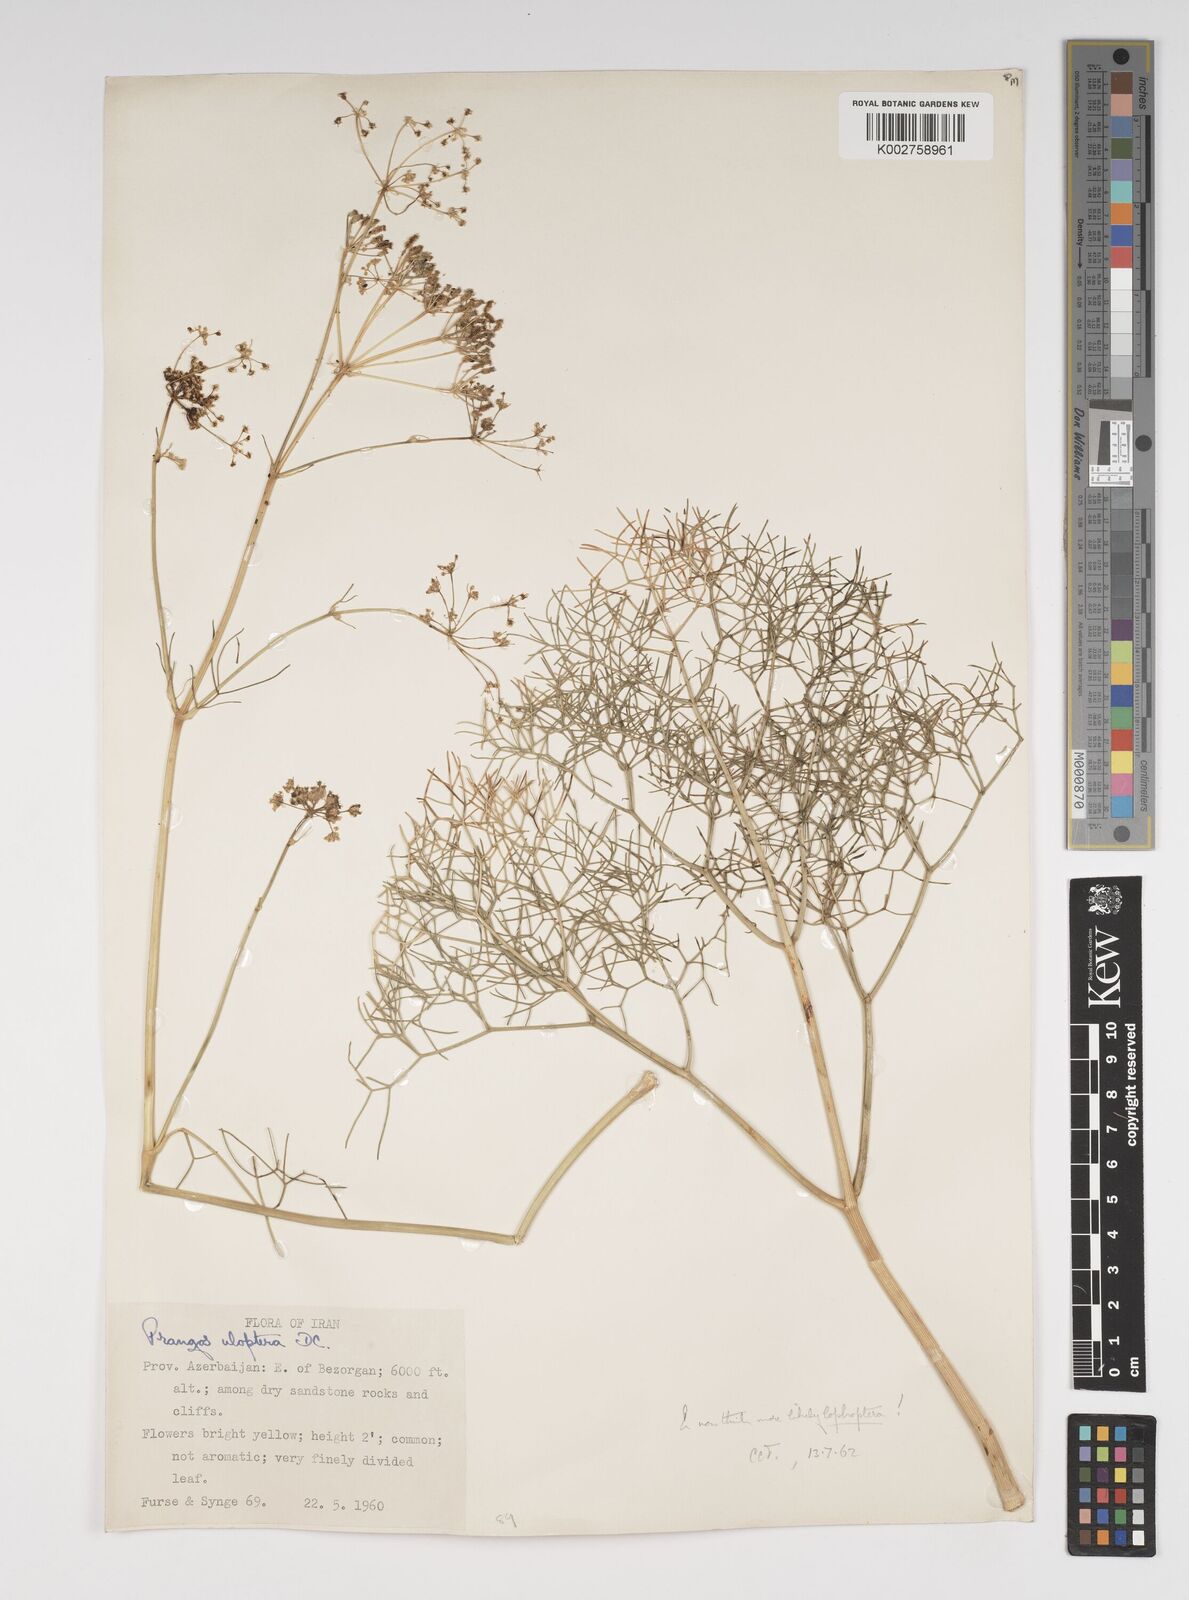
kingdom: Plantae
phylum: Tracheophyta
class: Magnoliopsida
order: Apiales
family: Apiaceae
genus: Prangos
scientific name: Prangos pabularia
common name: Yugan
